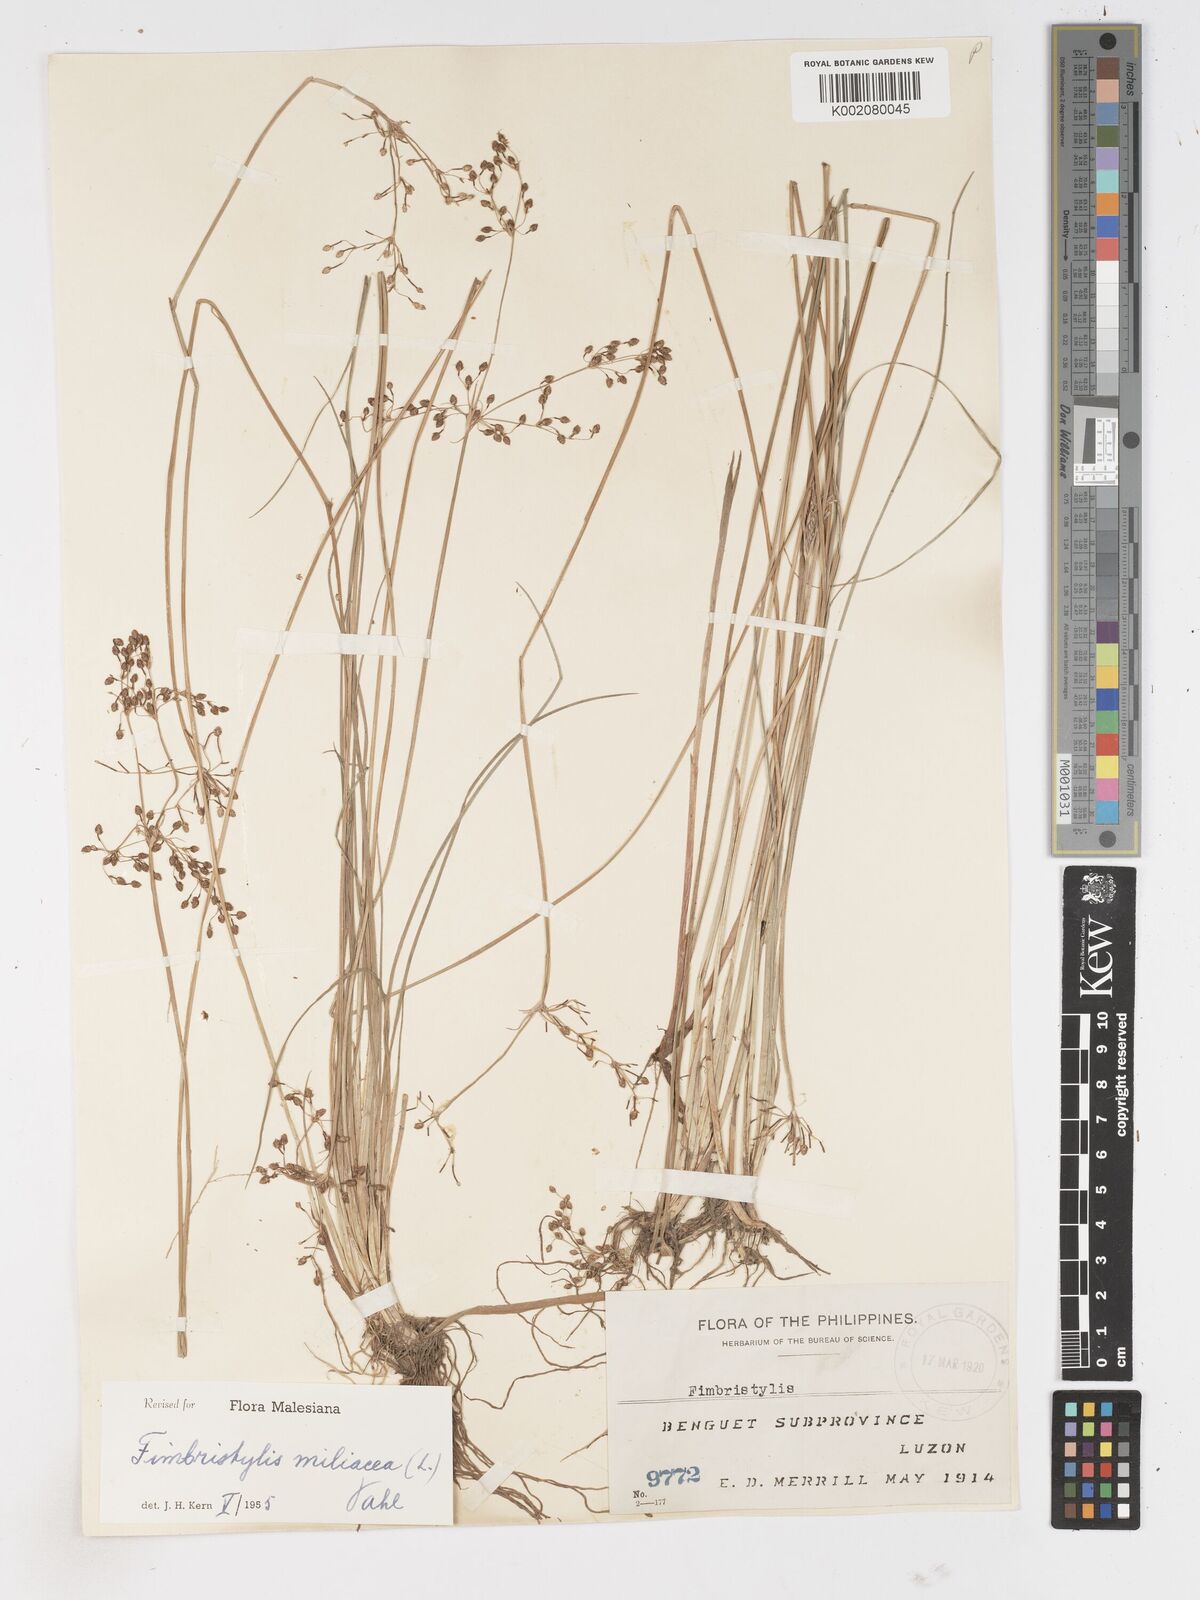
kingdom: Plantae
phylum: Tracheophyta
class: Liliopsida
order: Poales
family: Cyperaceae
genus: Fimbristylis
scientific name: Fimbristylis littoralis
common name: Fimbry
